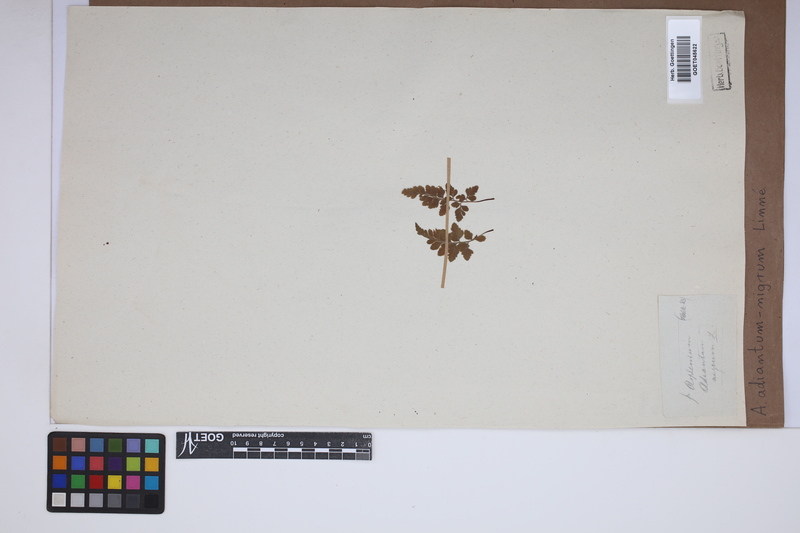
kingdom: Plantae
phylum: Tracheophyta
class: Polypodiopsida
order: Polypodiales
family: Aspleniaceae
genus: Asplenium
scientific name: Asplenium adiantum-nigrum
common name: Black spleenwort
